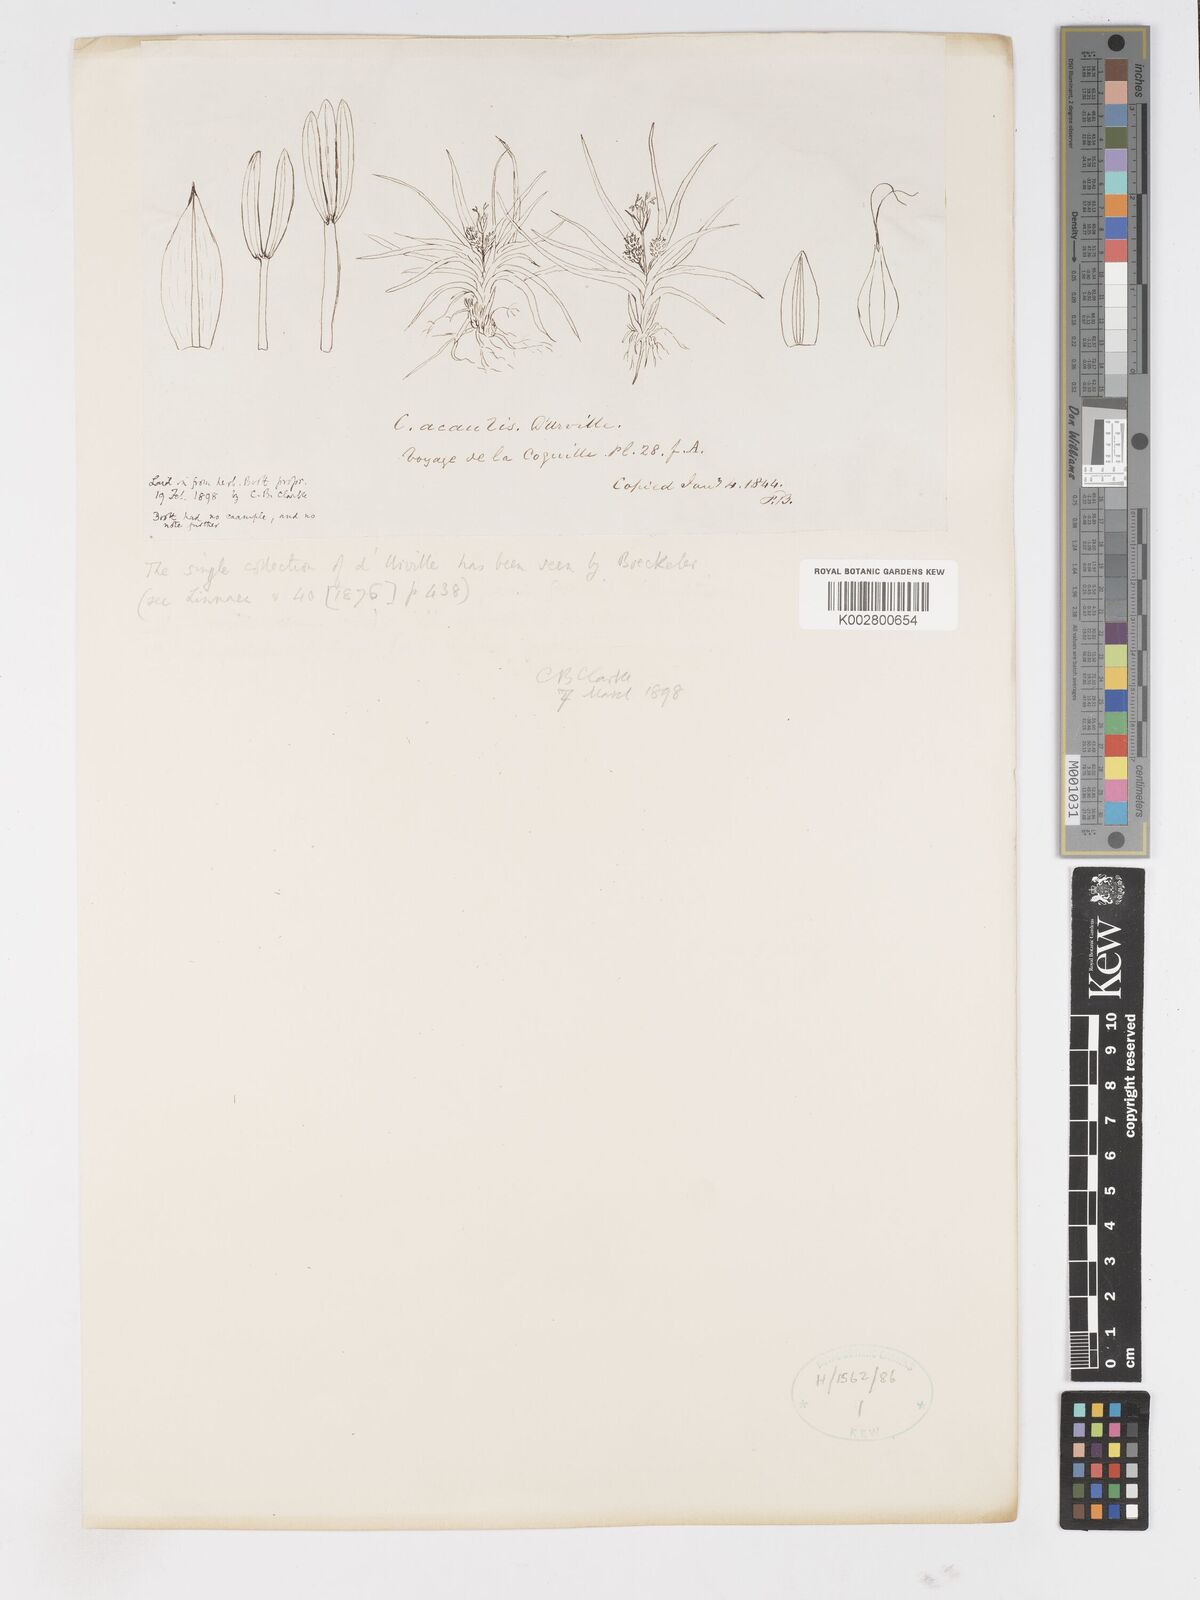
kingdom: Plantae
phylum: Tracheophyta
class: Liliopsida
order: Poales
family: Cyperaceae
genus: Carex
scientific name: Carex acaulis
